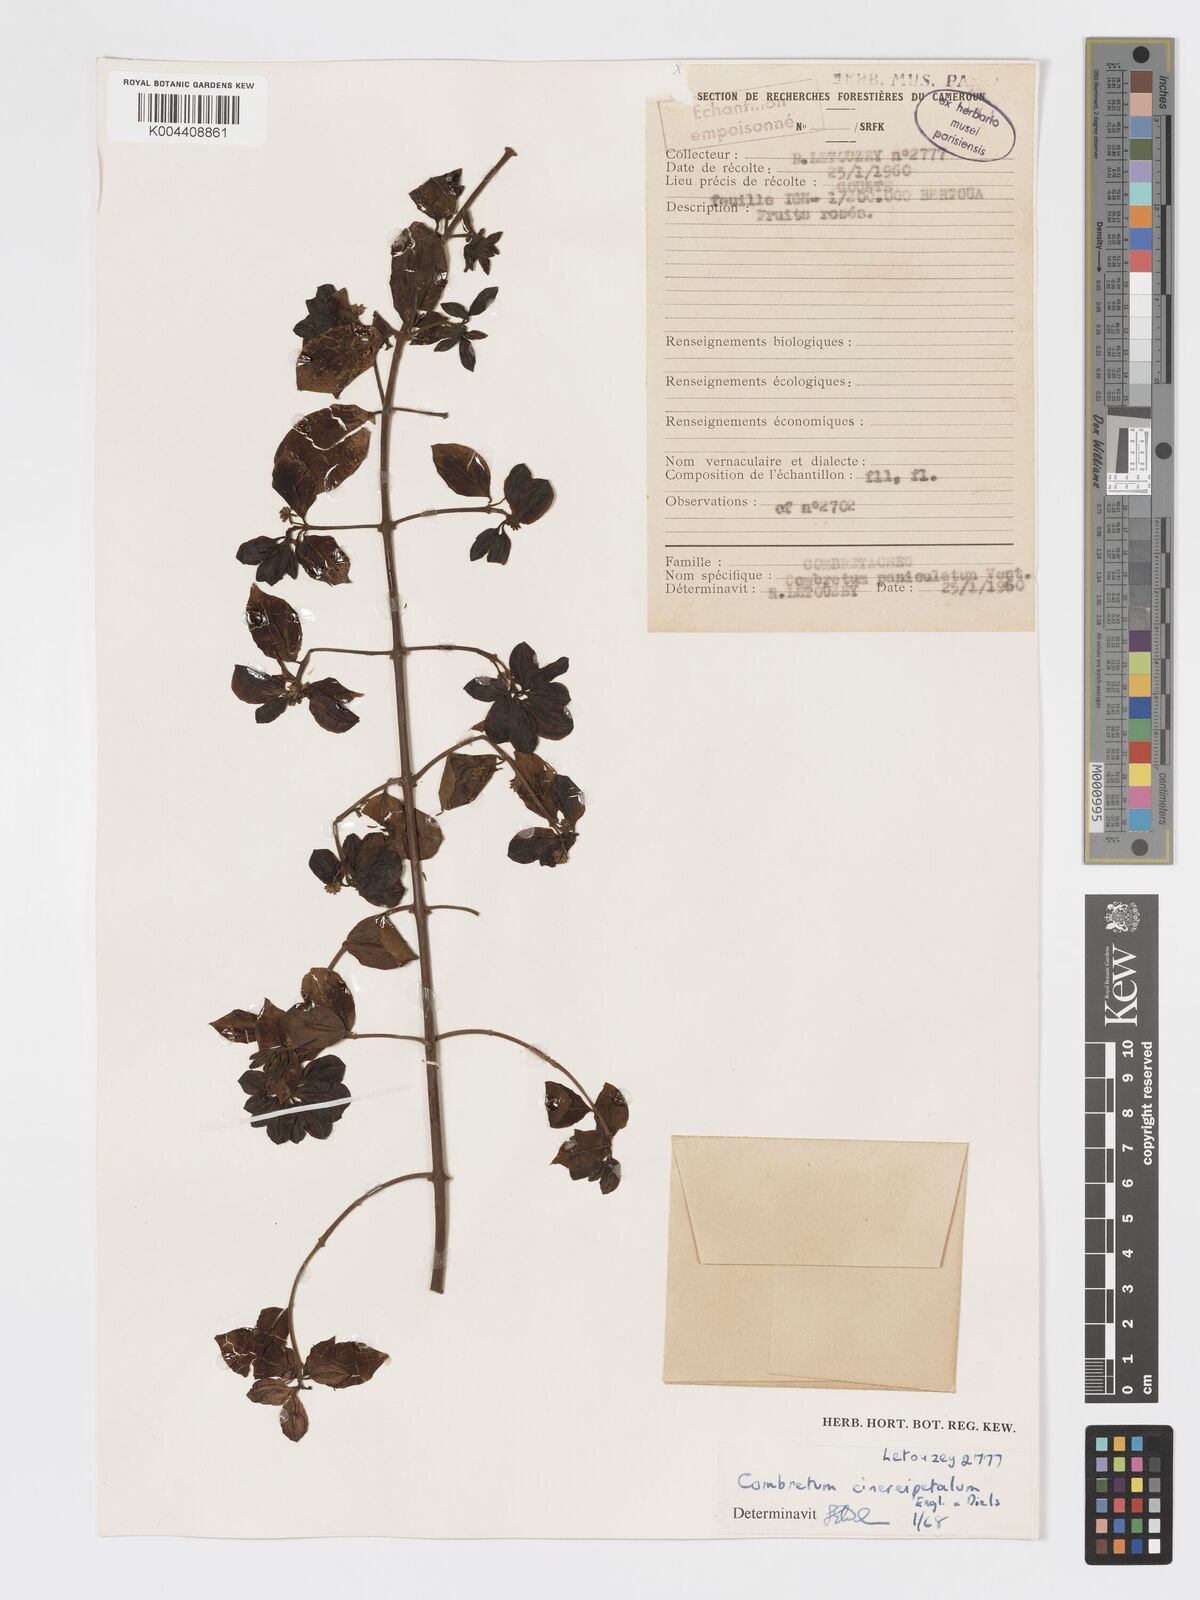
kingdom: Plantae
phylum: Tracheophyta
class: Magnoliopsida
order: Myrtales
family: Combretaceae
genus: Combretum
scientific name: Combretum cinereopetalum
